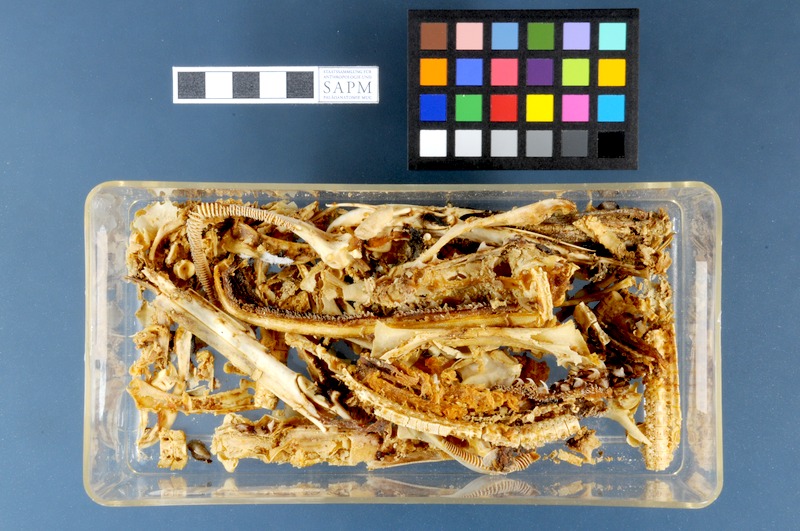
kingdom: Animalia
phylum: Chordata
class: Elasmobranchii
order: Rajiformes
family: Rajidae
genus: Raja
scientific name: Raja clavata
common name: Thornback ray
